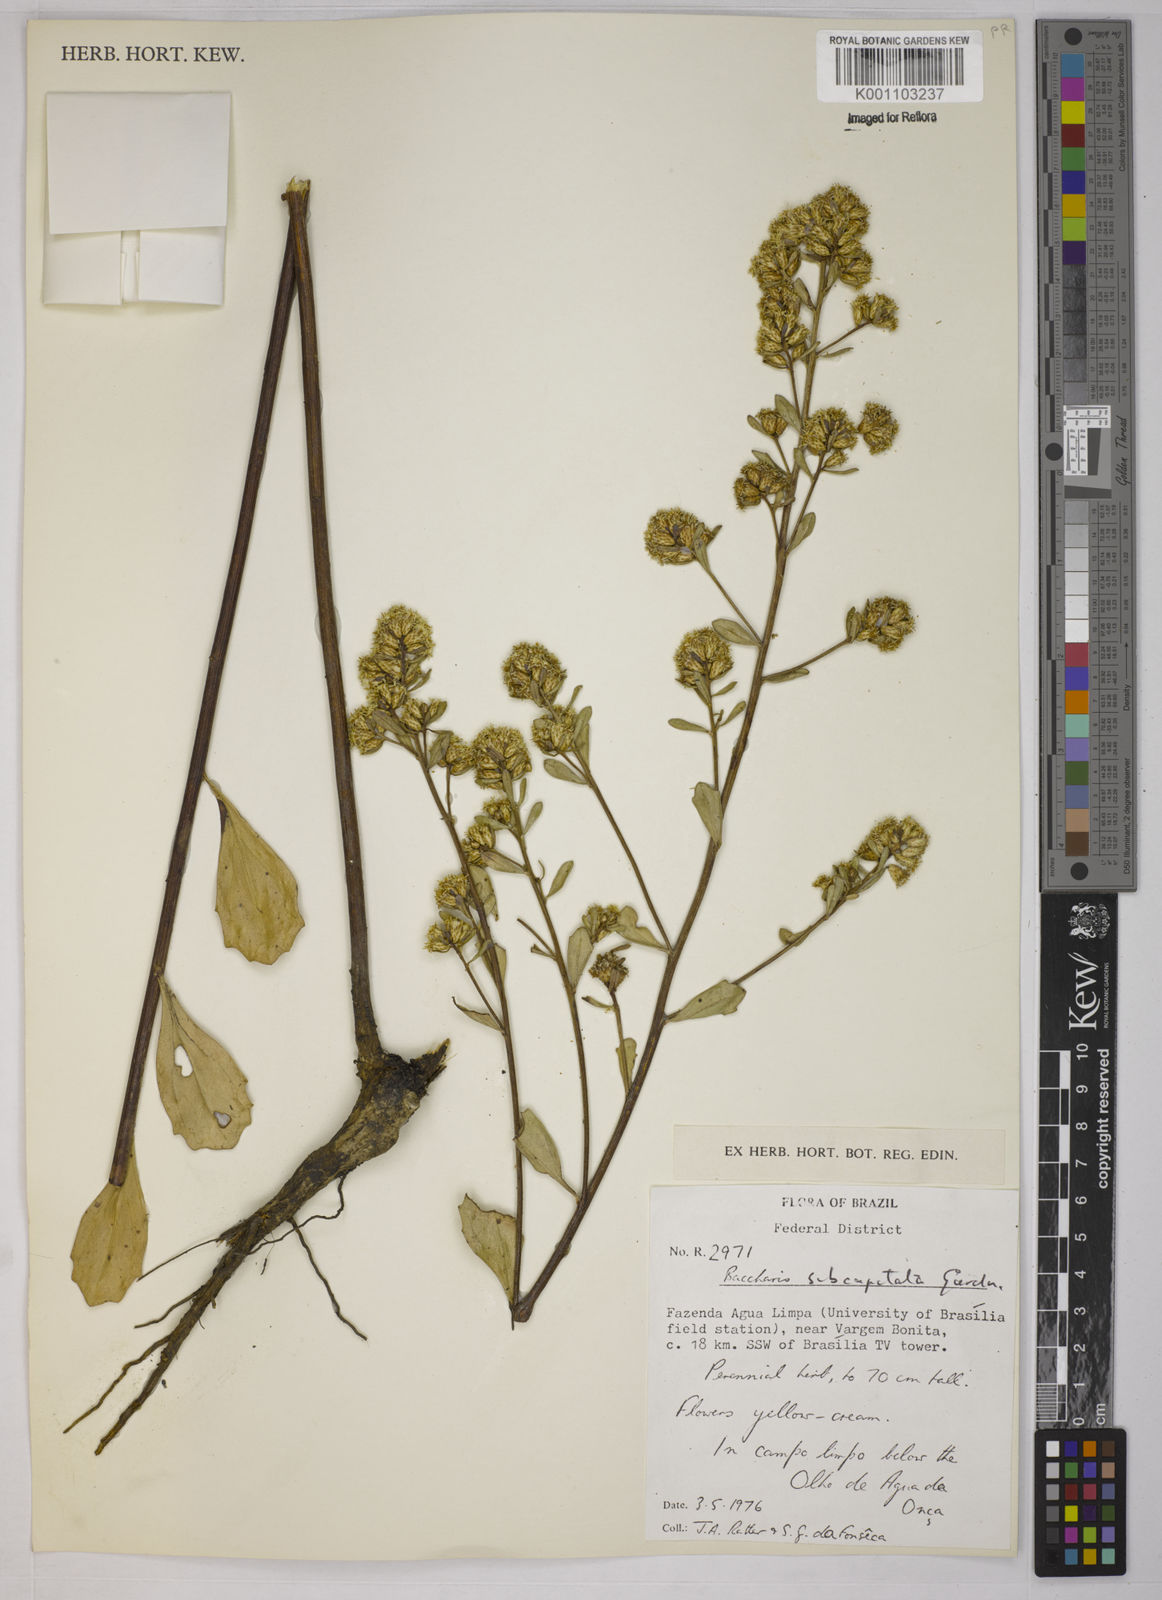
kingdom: Plantae
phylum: Tracheophyta
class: Magnoliopsida
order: Asterales
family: Asteraceae
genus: Baccharis
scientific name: Baccharis subdentata
